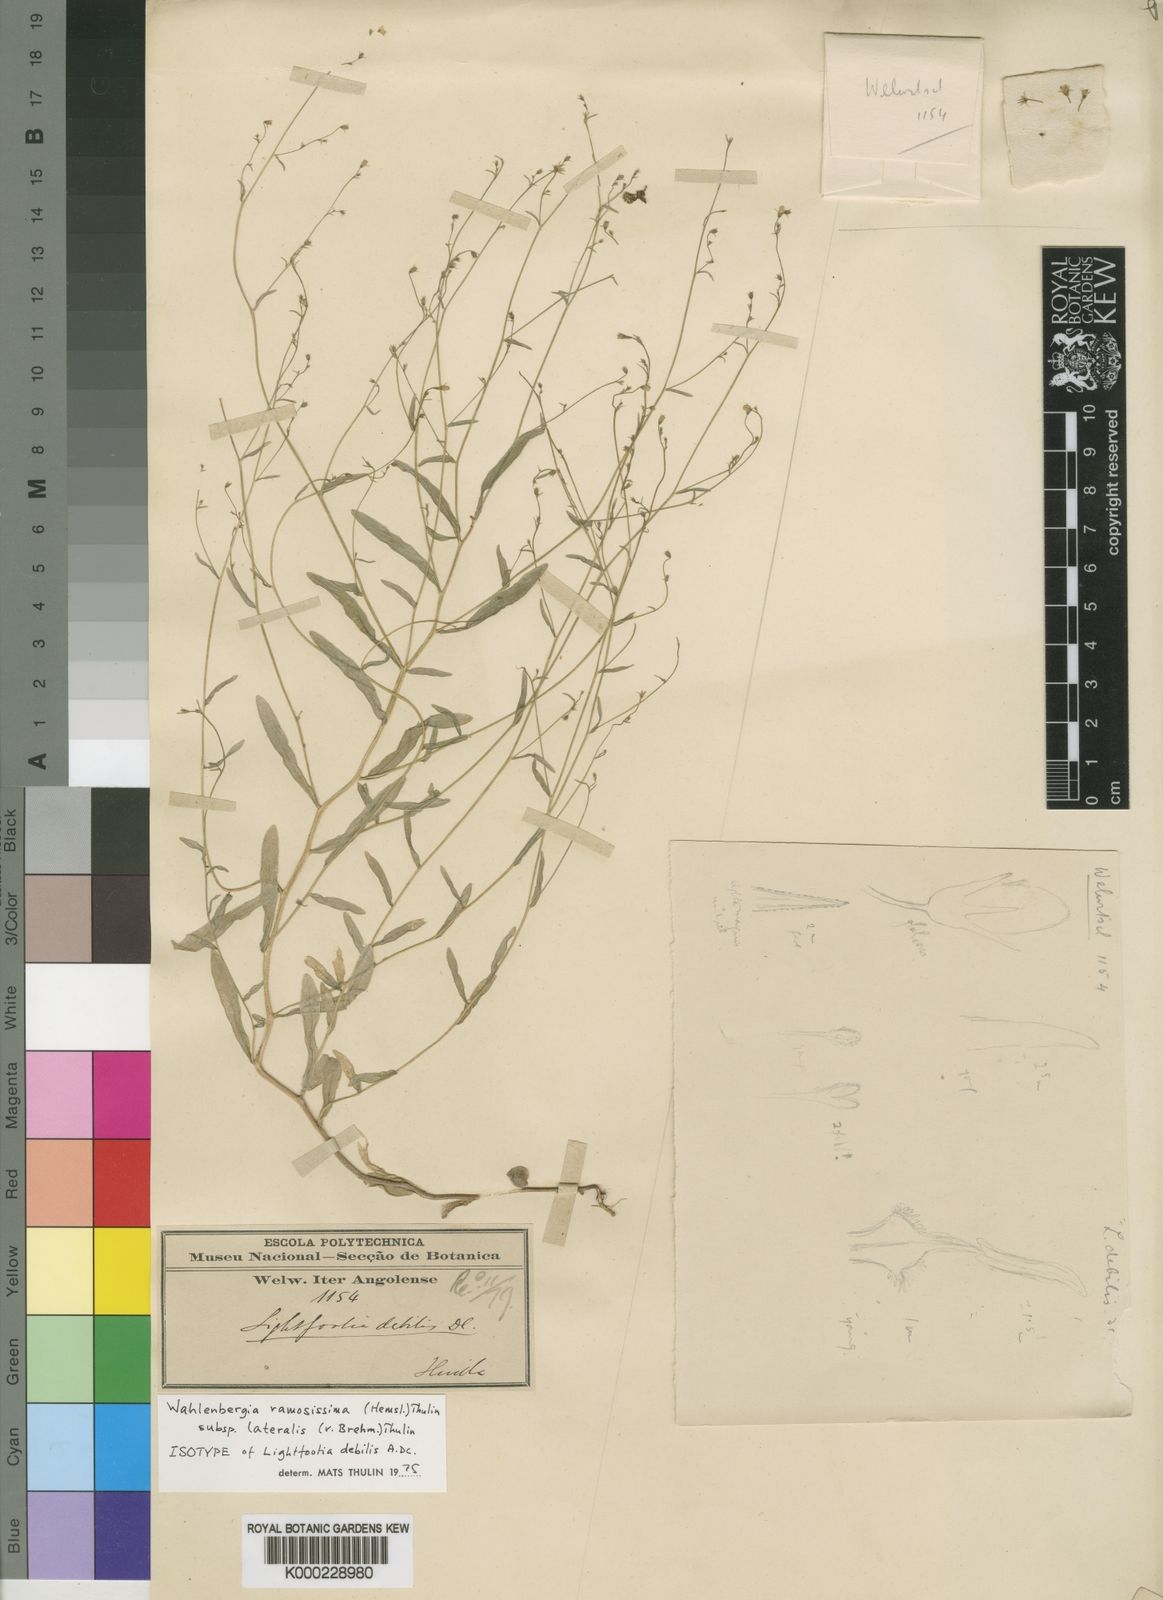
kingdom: Plantae
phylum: Tracheophyta
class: Magnoliopsida
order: Asterales
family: Campanulaceae
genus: Wahlenbergia
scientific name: Wahlenbergia ramosissima
